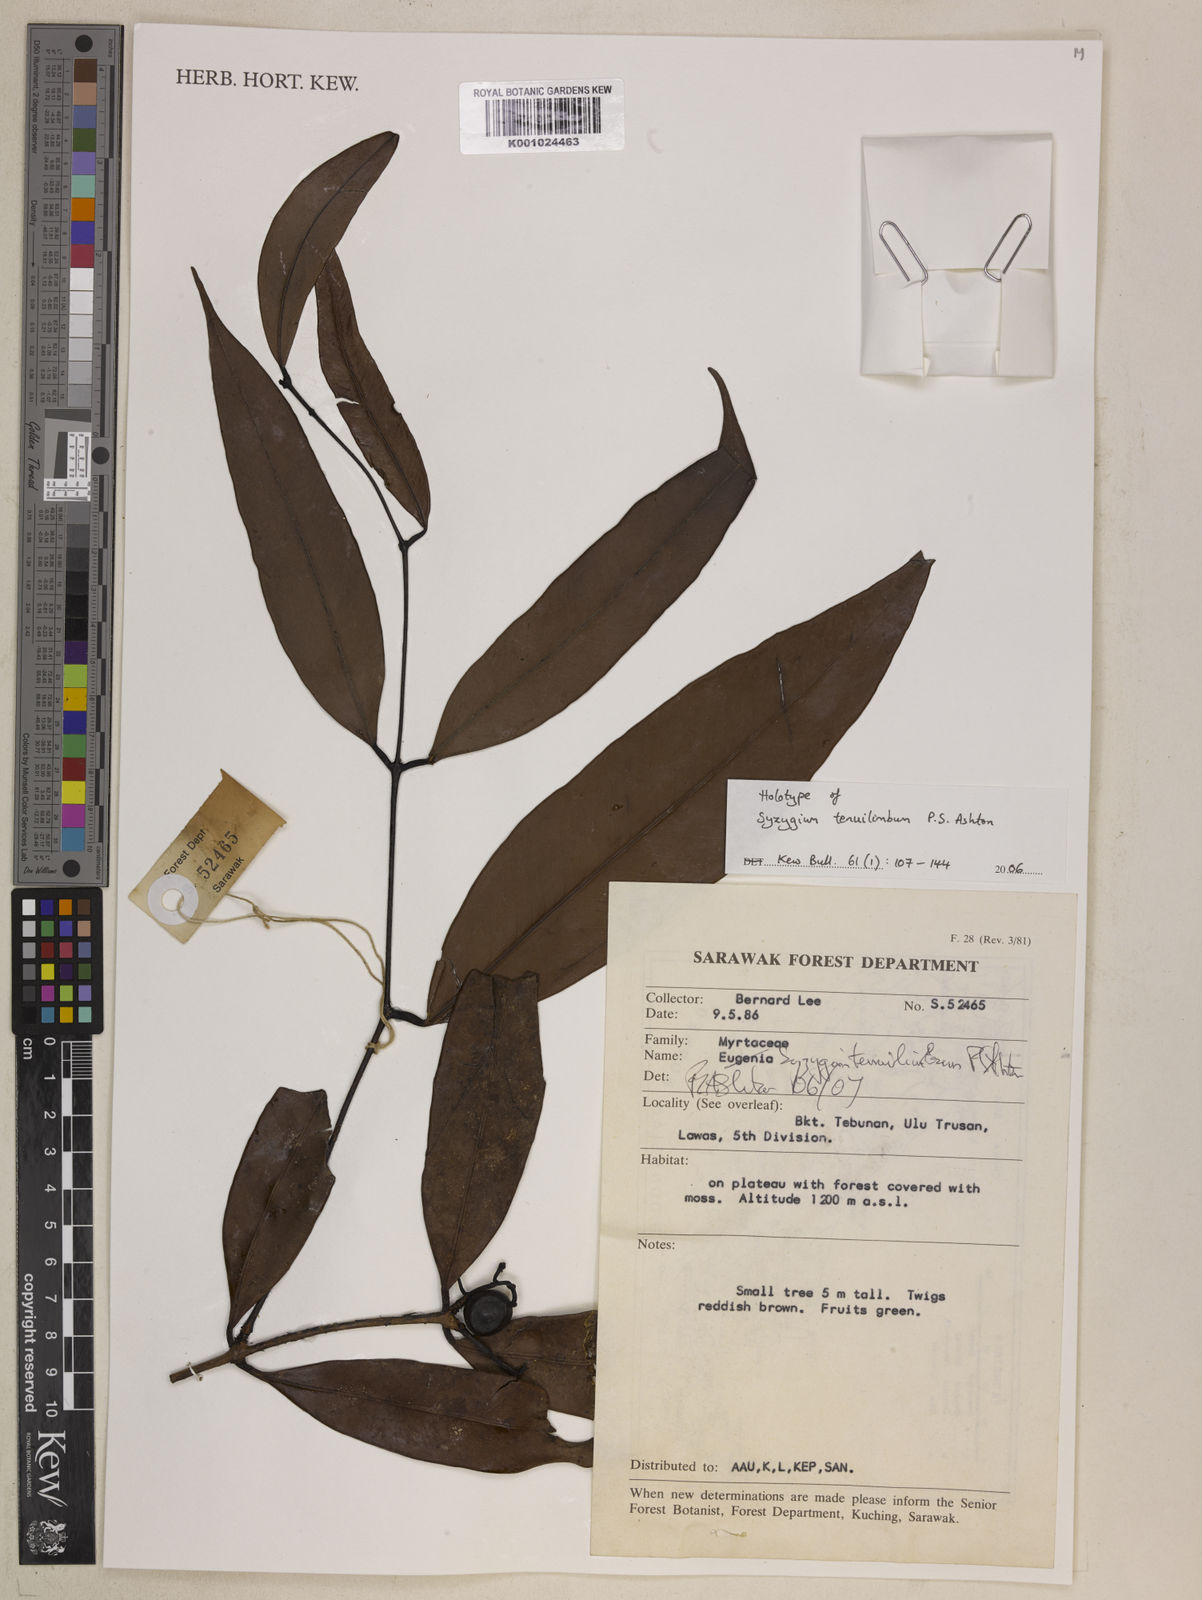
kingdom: Plantae
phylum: Tracheophyta
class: Magnoliopsida
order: Myrtales
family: Myrtaceae
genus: Syzygium
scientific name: Syzygium tenuilimbum
